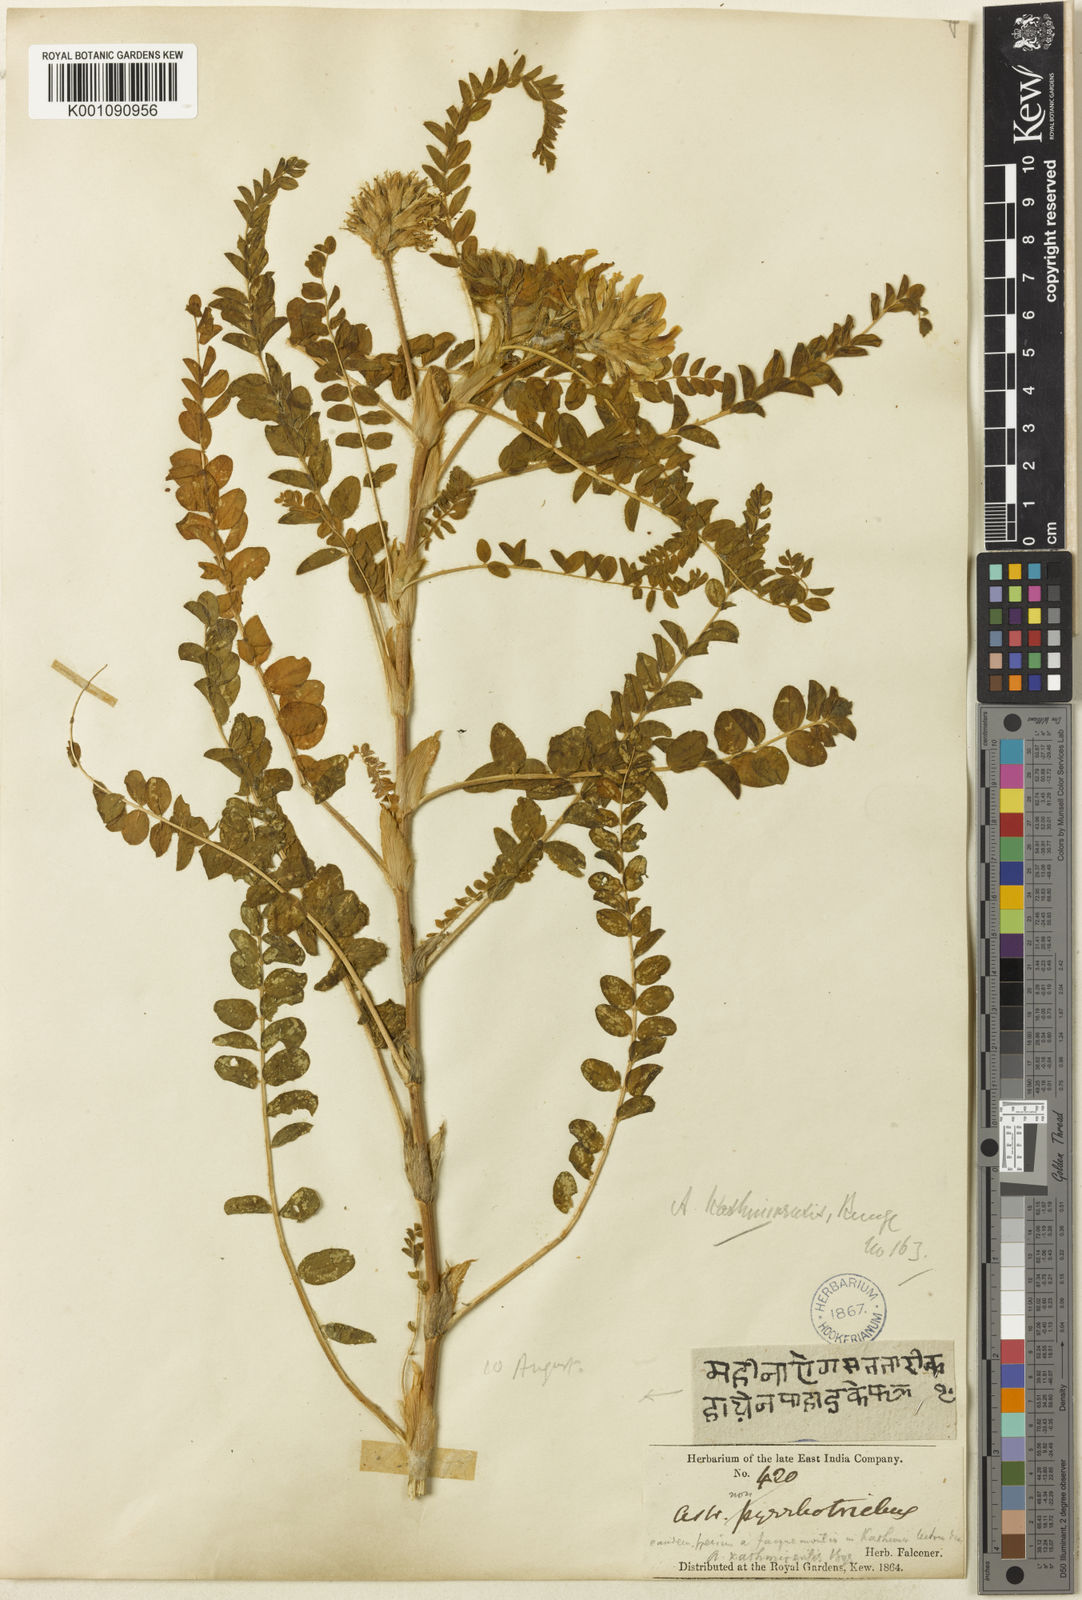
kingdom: Plantae
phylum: Tracheophyta
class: Magnoliopsida
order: Fabales
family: Fabaceae
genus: Astragalus
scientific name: Astragalus
